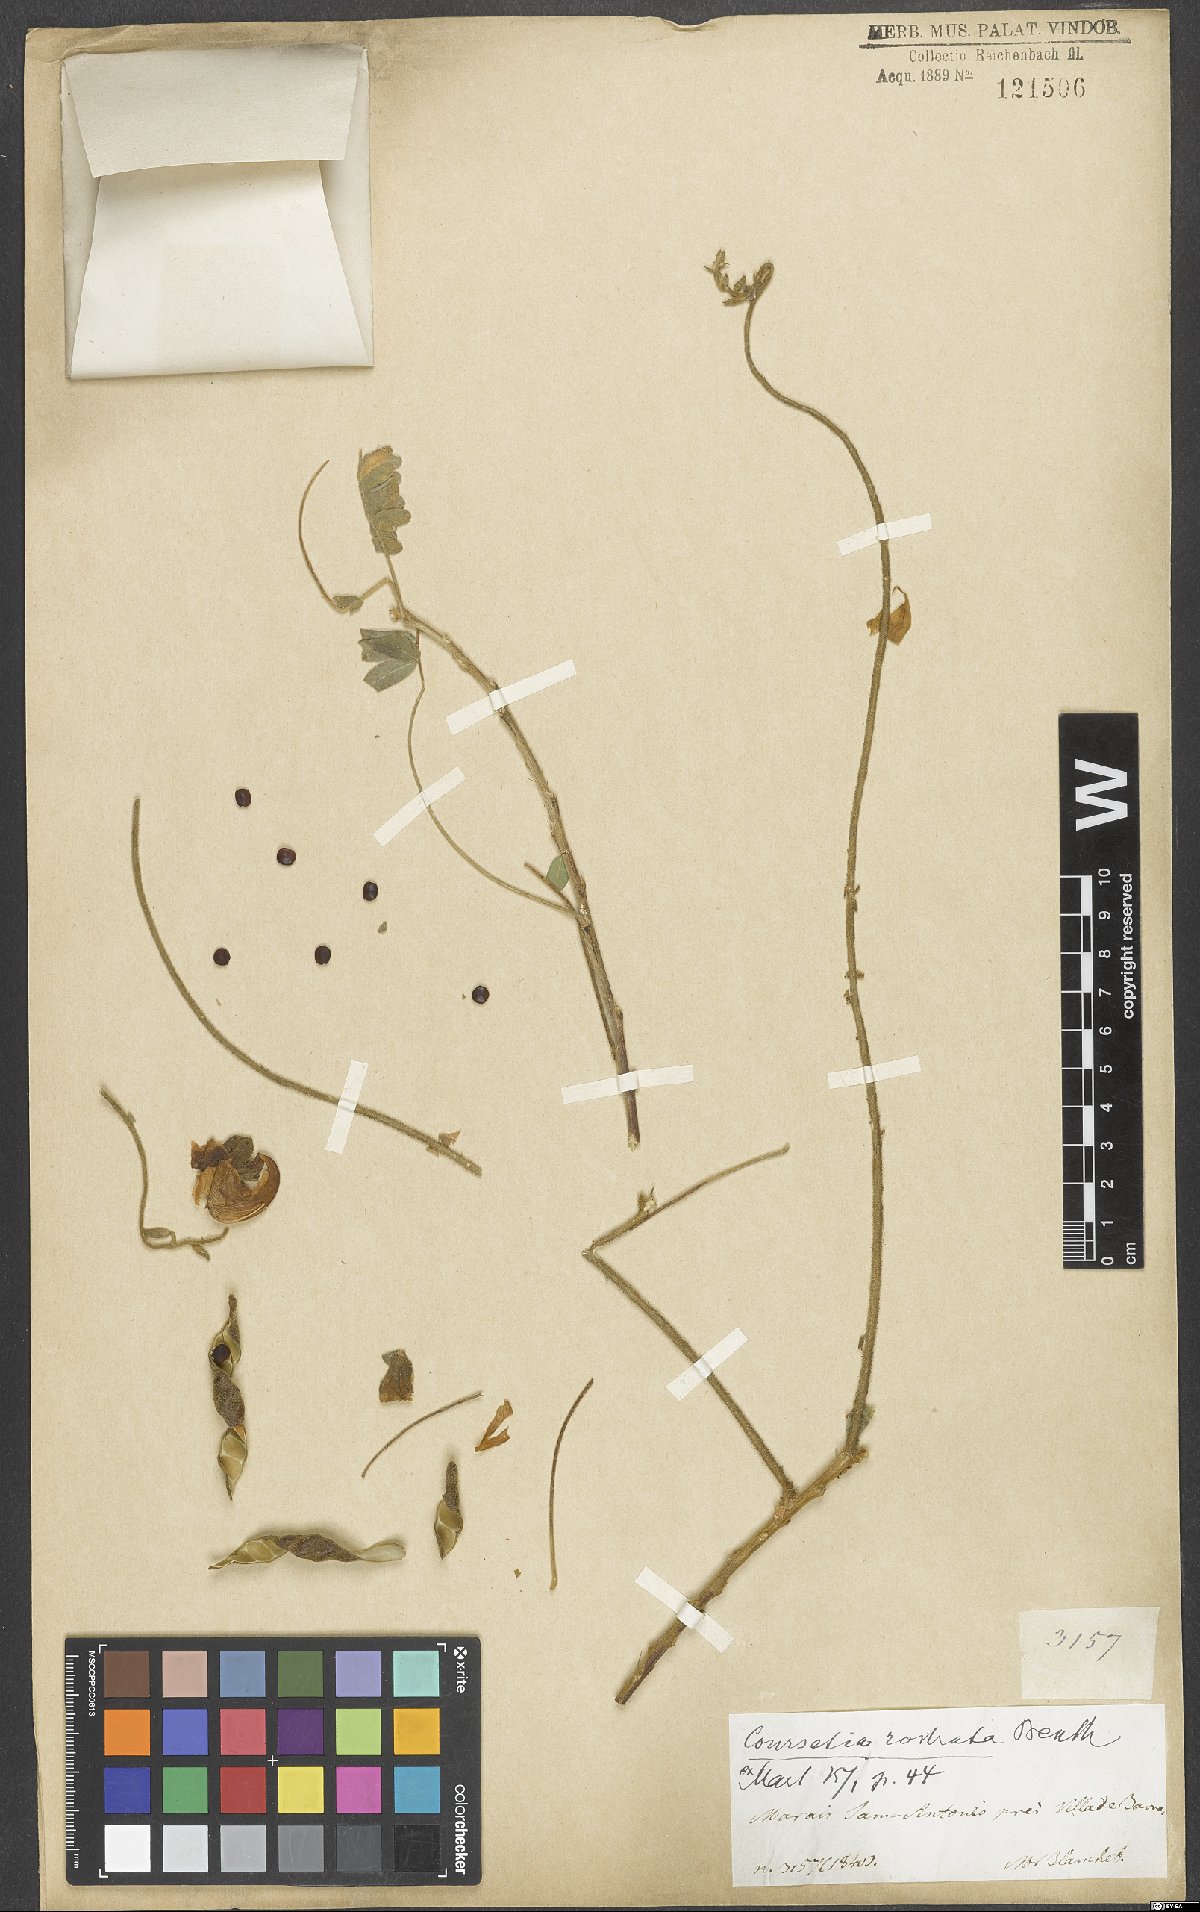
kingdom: Plantae
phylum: Tracheophyta
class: Magnoliopsida
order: Fabales
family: Fabaceae
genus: Coursetia
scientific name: Coursetia rostrata
